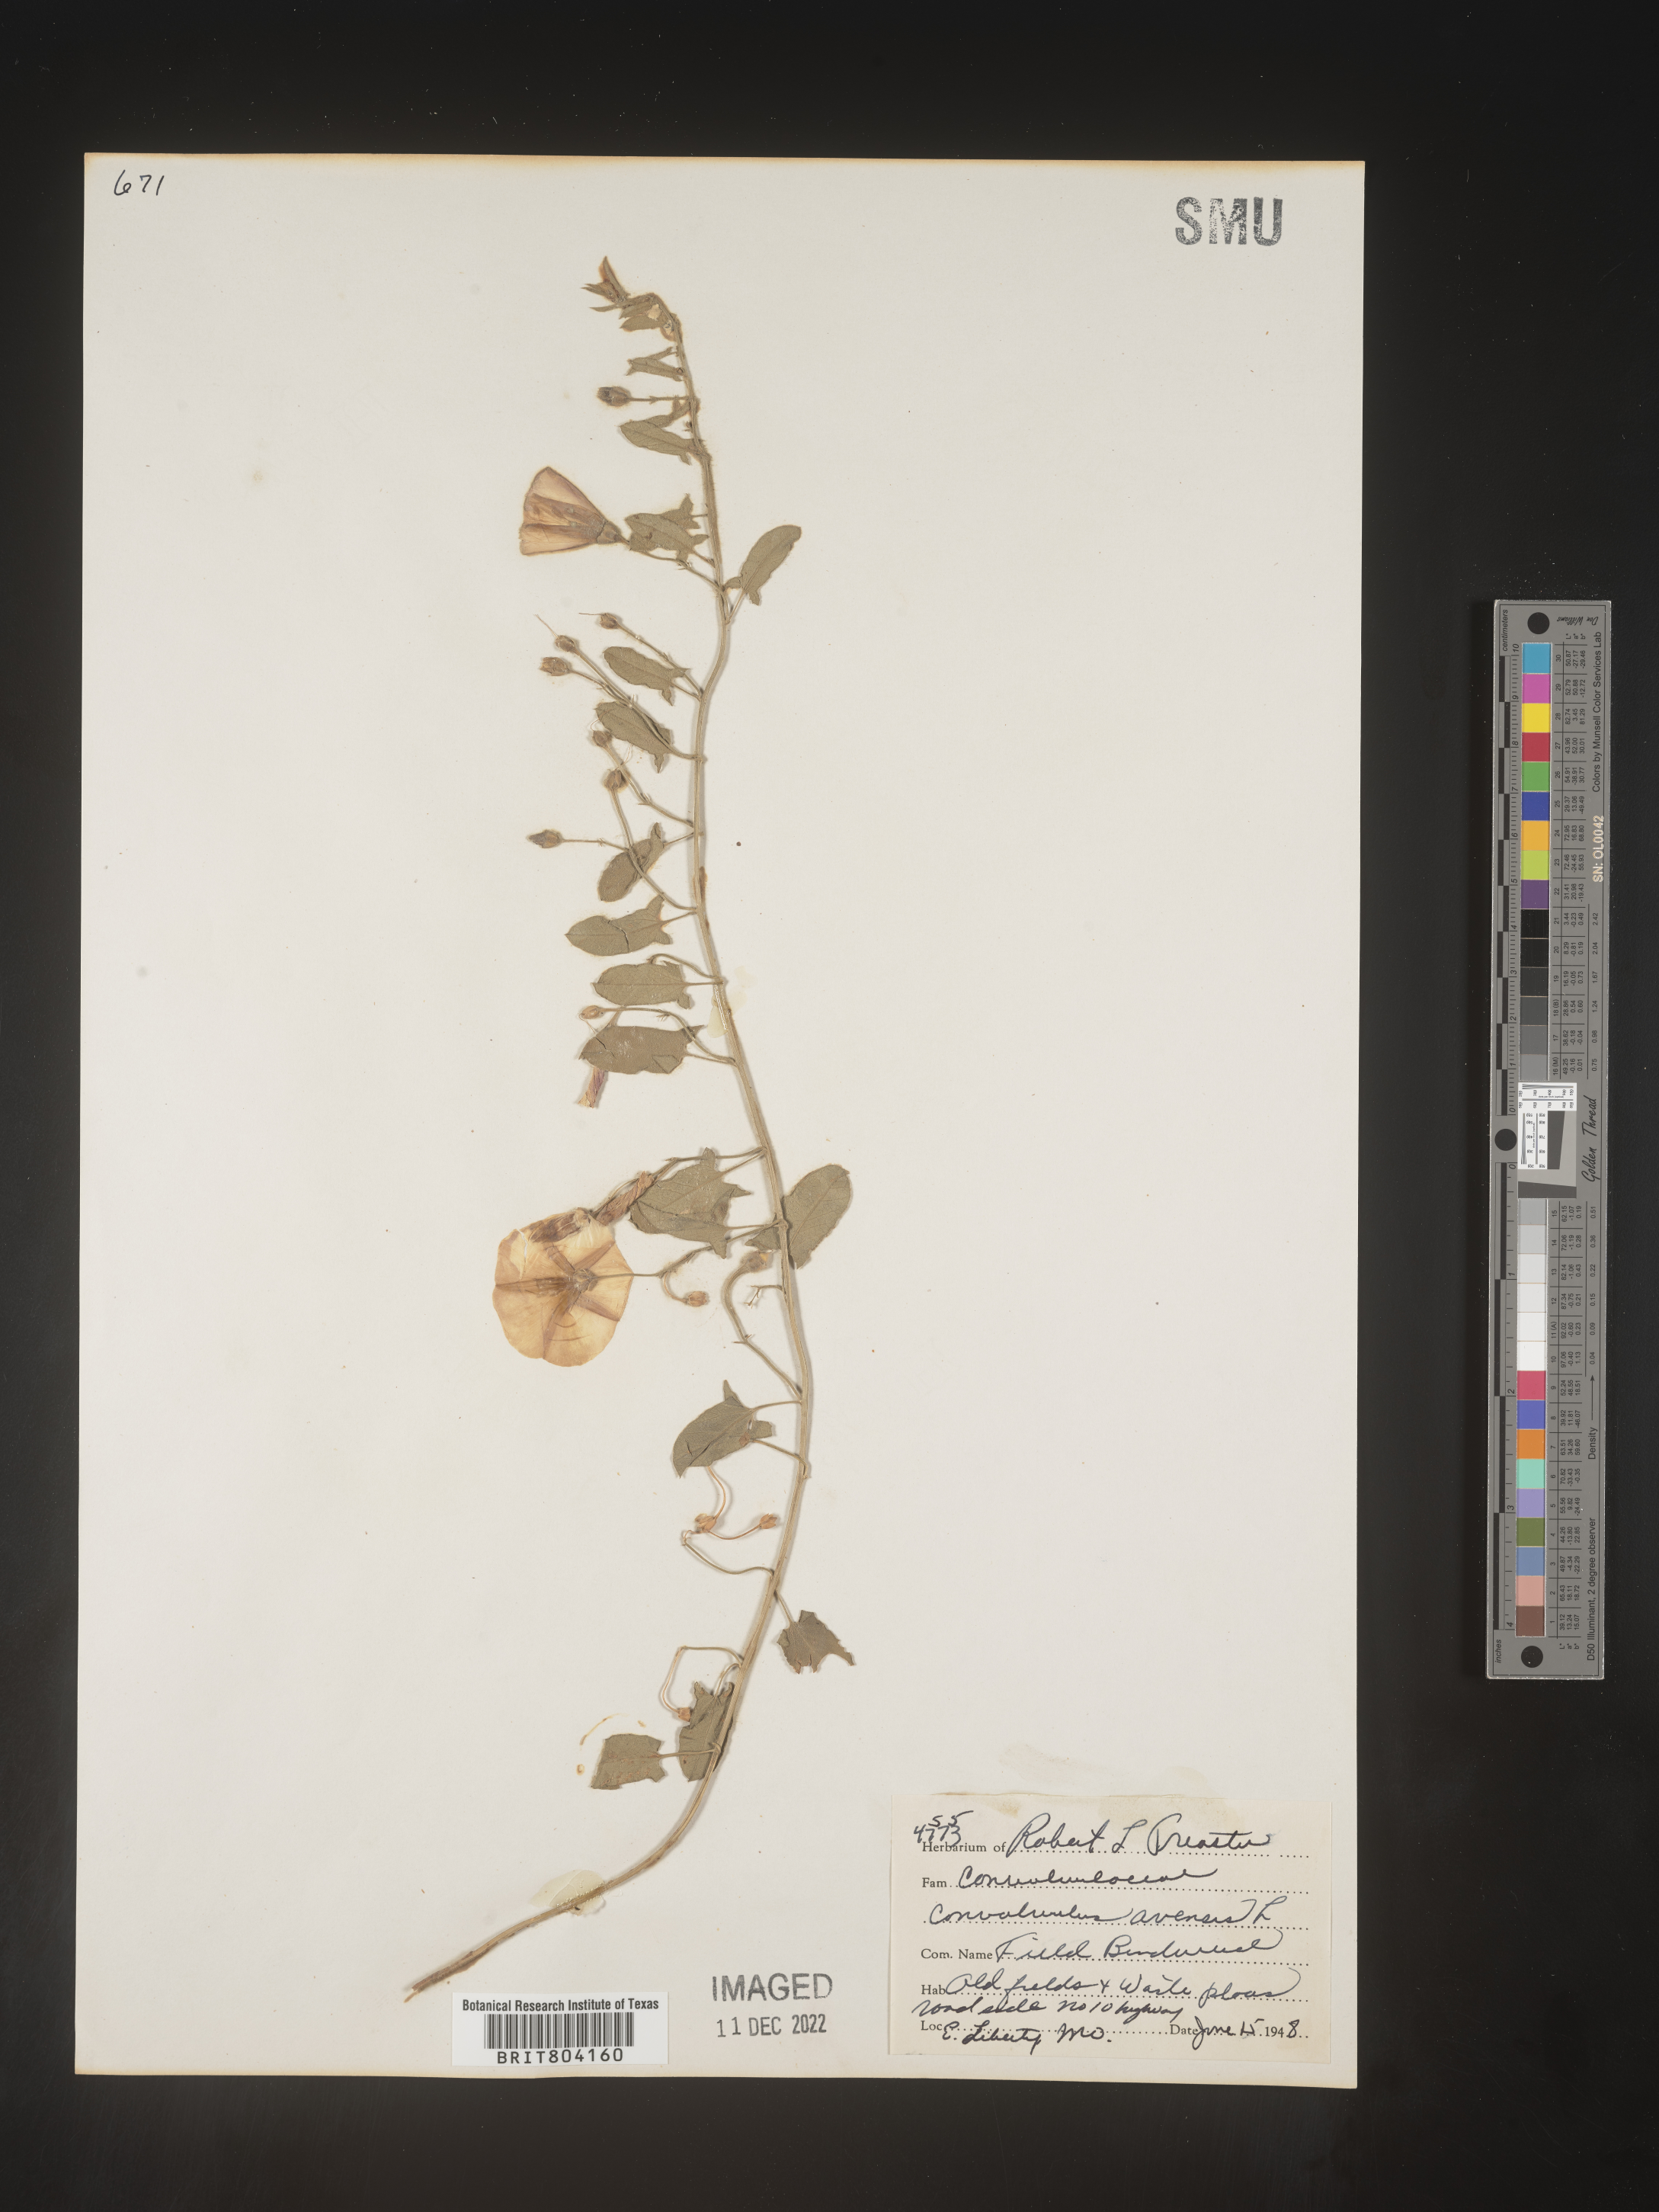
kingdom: Plantae
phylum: Tracheophyta
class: Magnoliopsida
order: Solanales
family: Convolvulaceae
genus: Convolvulus
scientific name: Convolvulus arvensis
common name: Field bindweed
